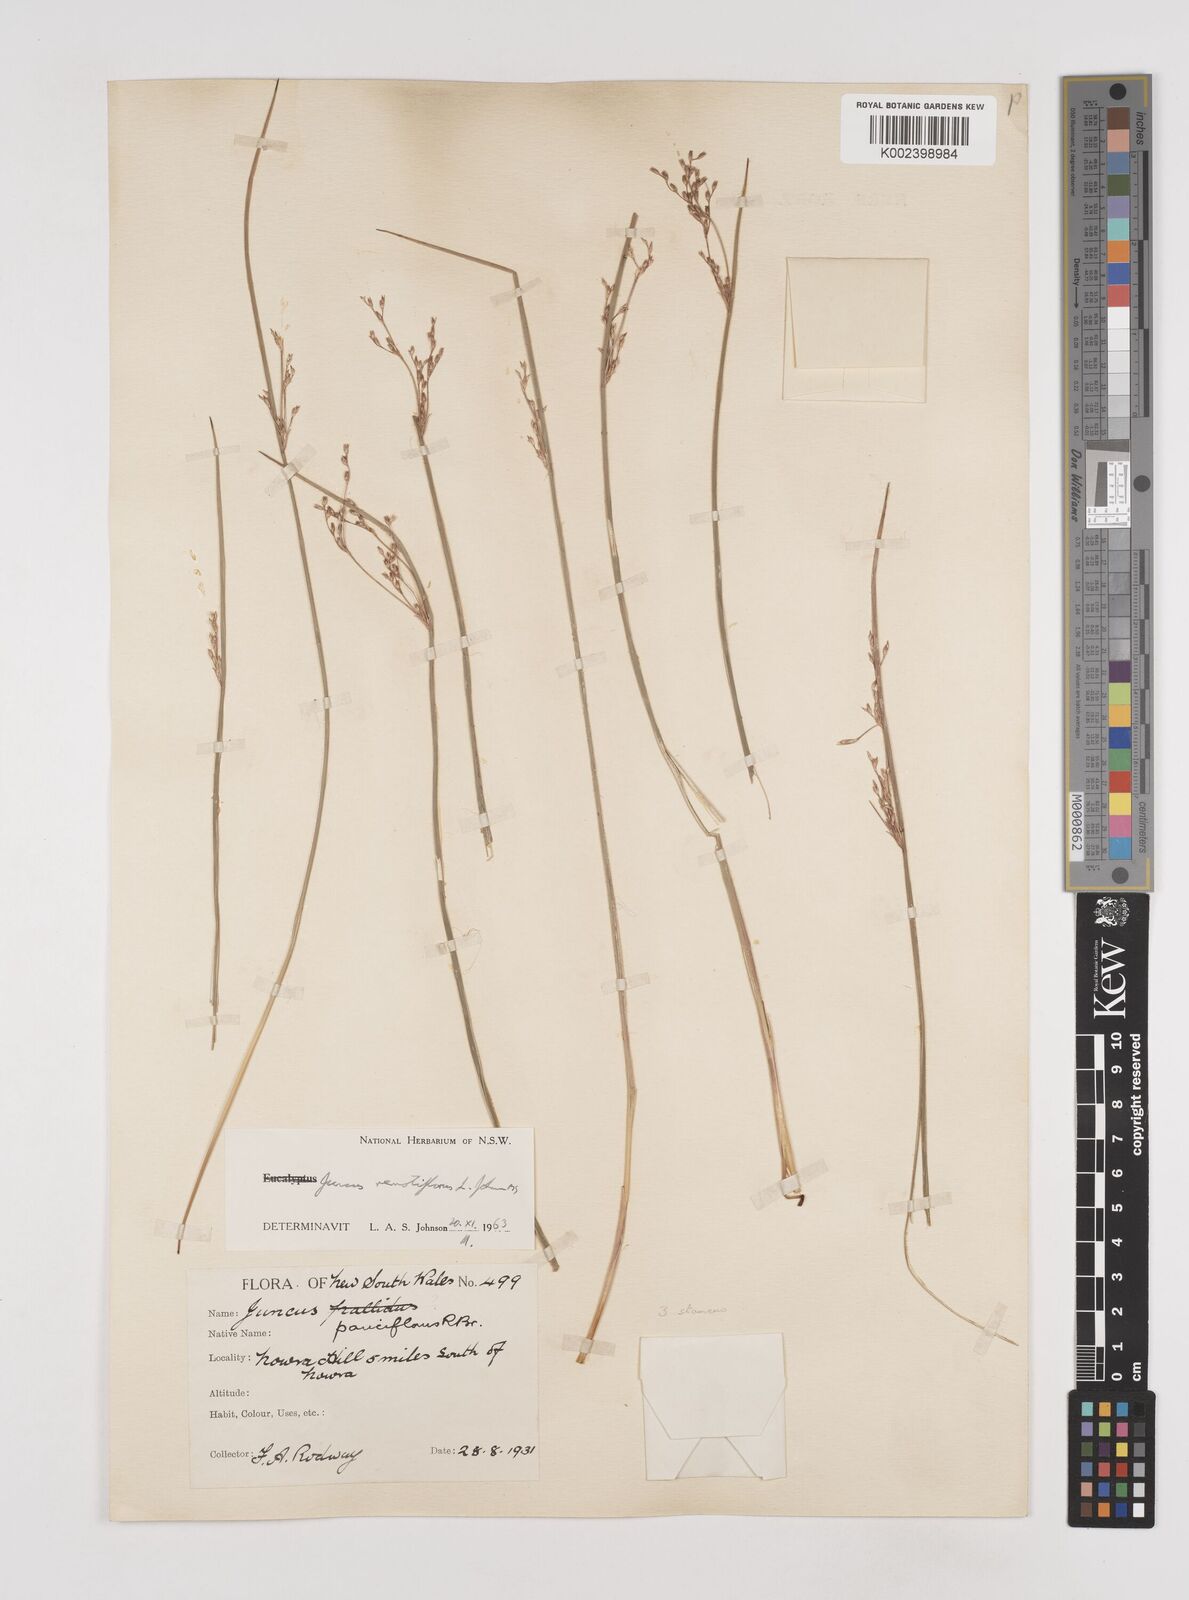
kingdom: Plantae
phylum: Tracheophyta
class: Liliopsida
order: Poales
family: Juncaceae
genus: Juncus
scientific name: Juncus remotiflorus
